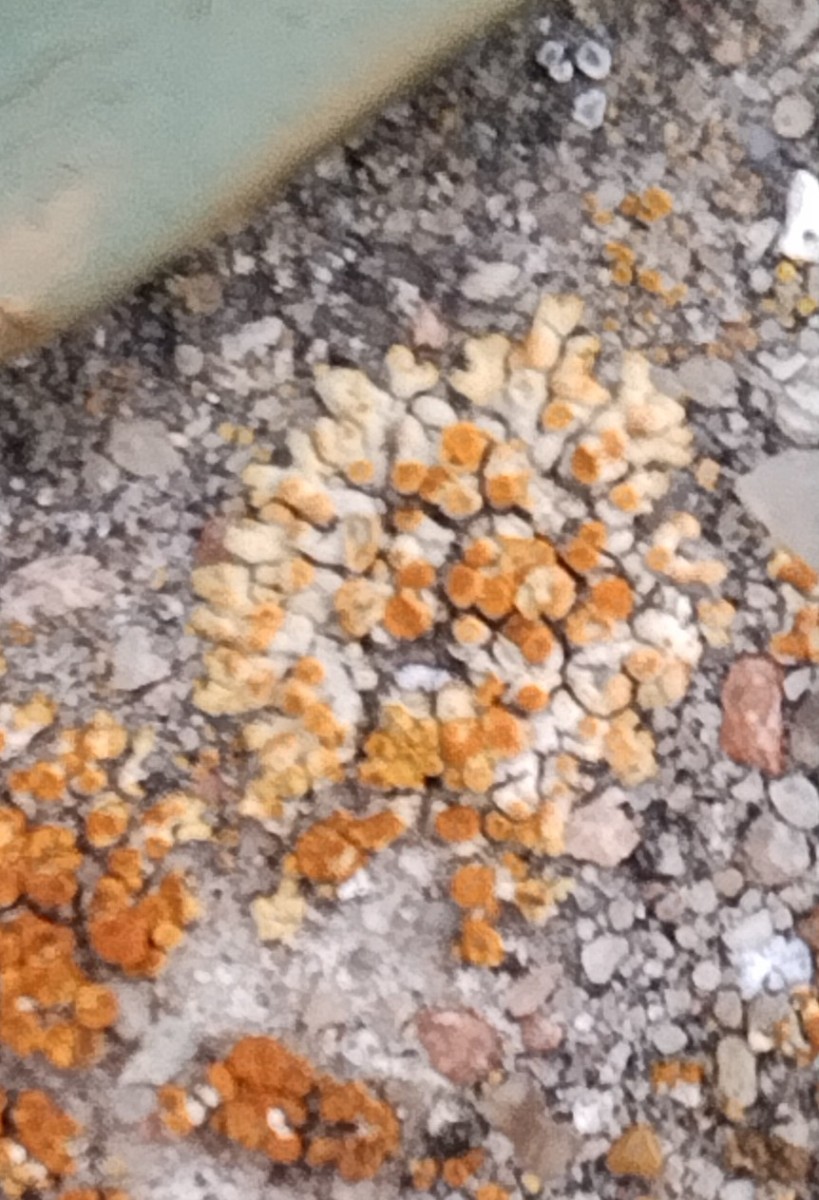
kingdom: Fungi
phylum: Ascomycota
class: Lecanoromycetes
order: Teloschistales
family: Teloschistaceae
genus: Calogaya
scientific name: Calogaya pusilla
